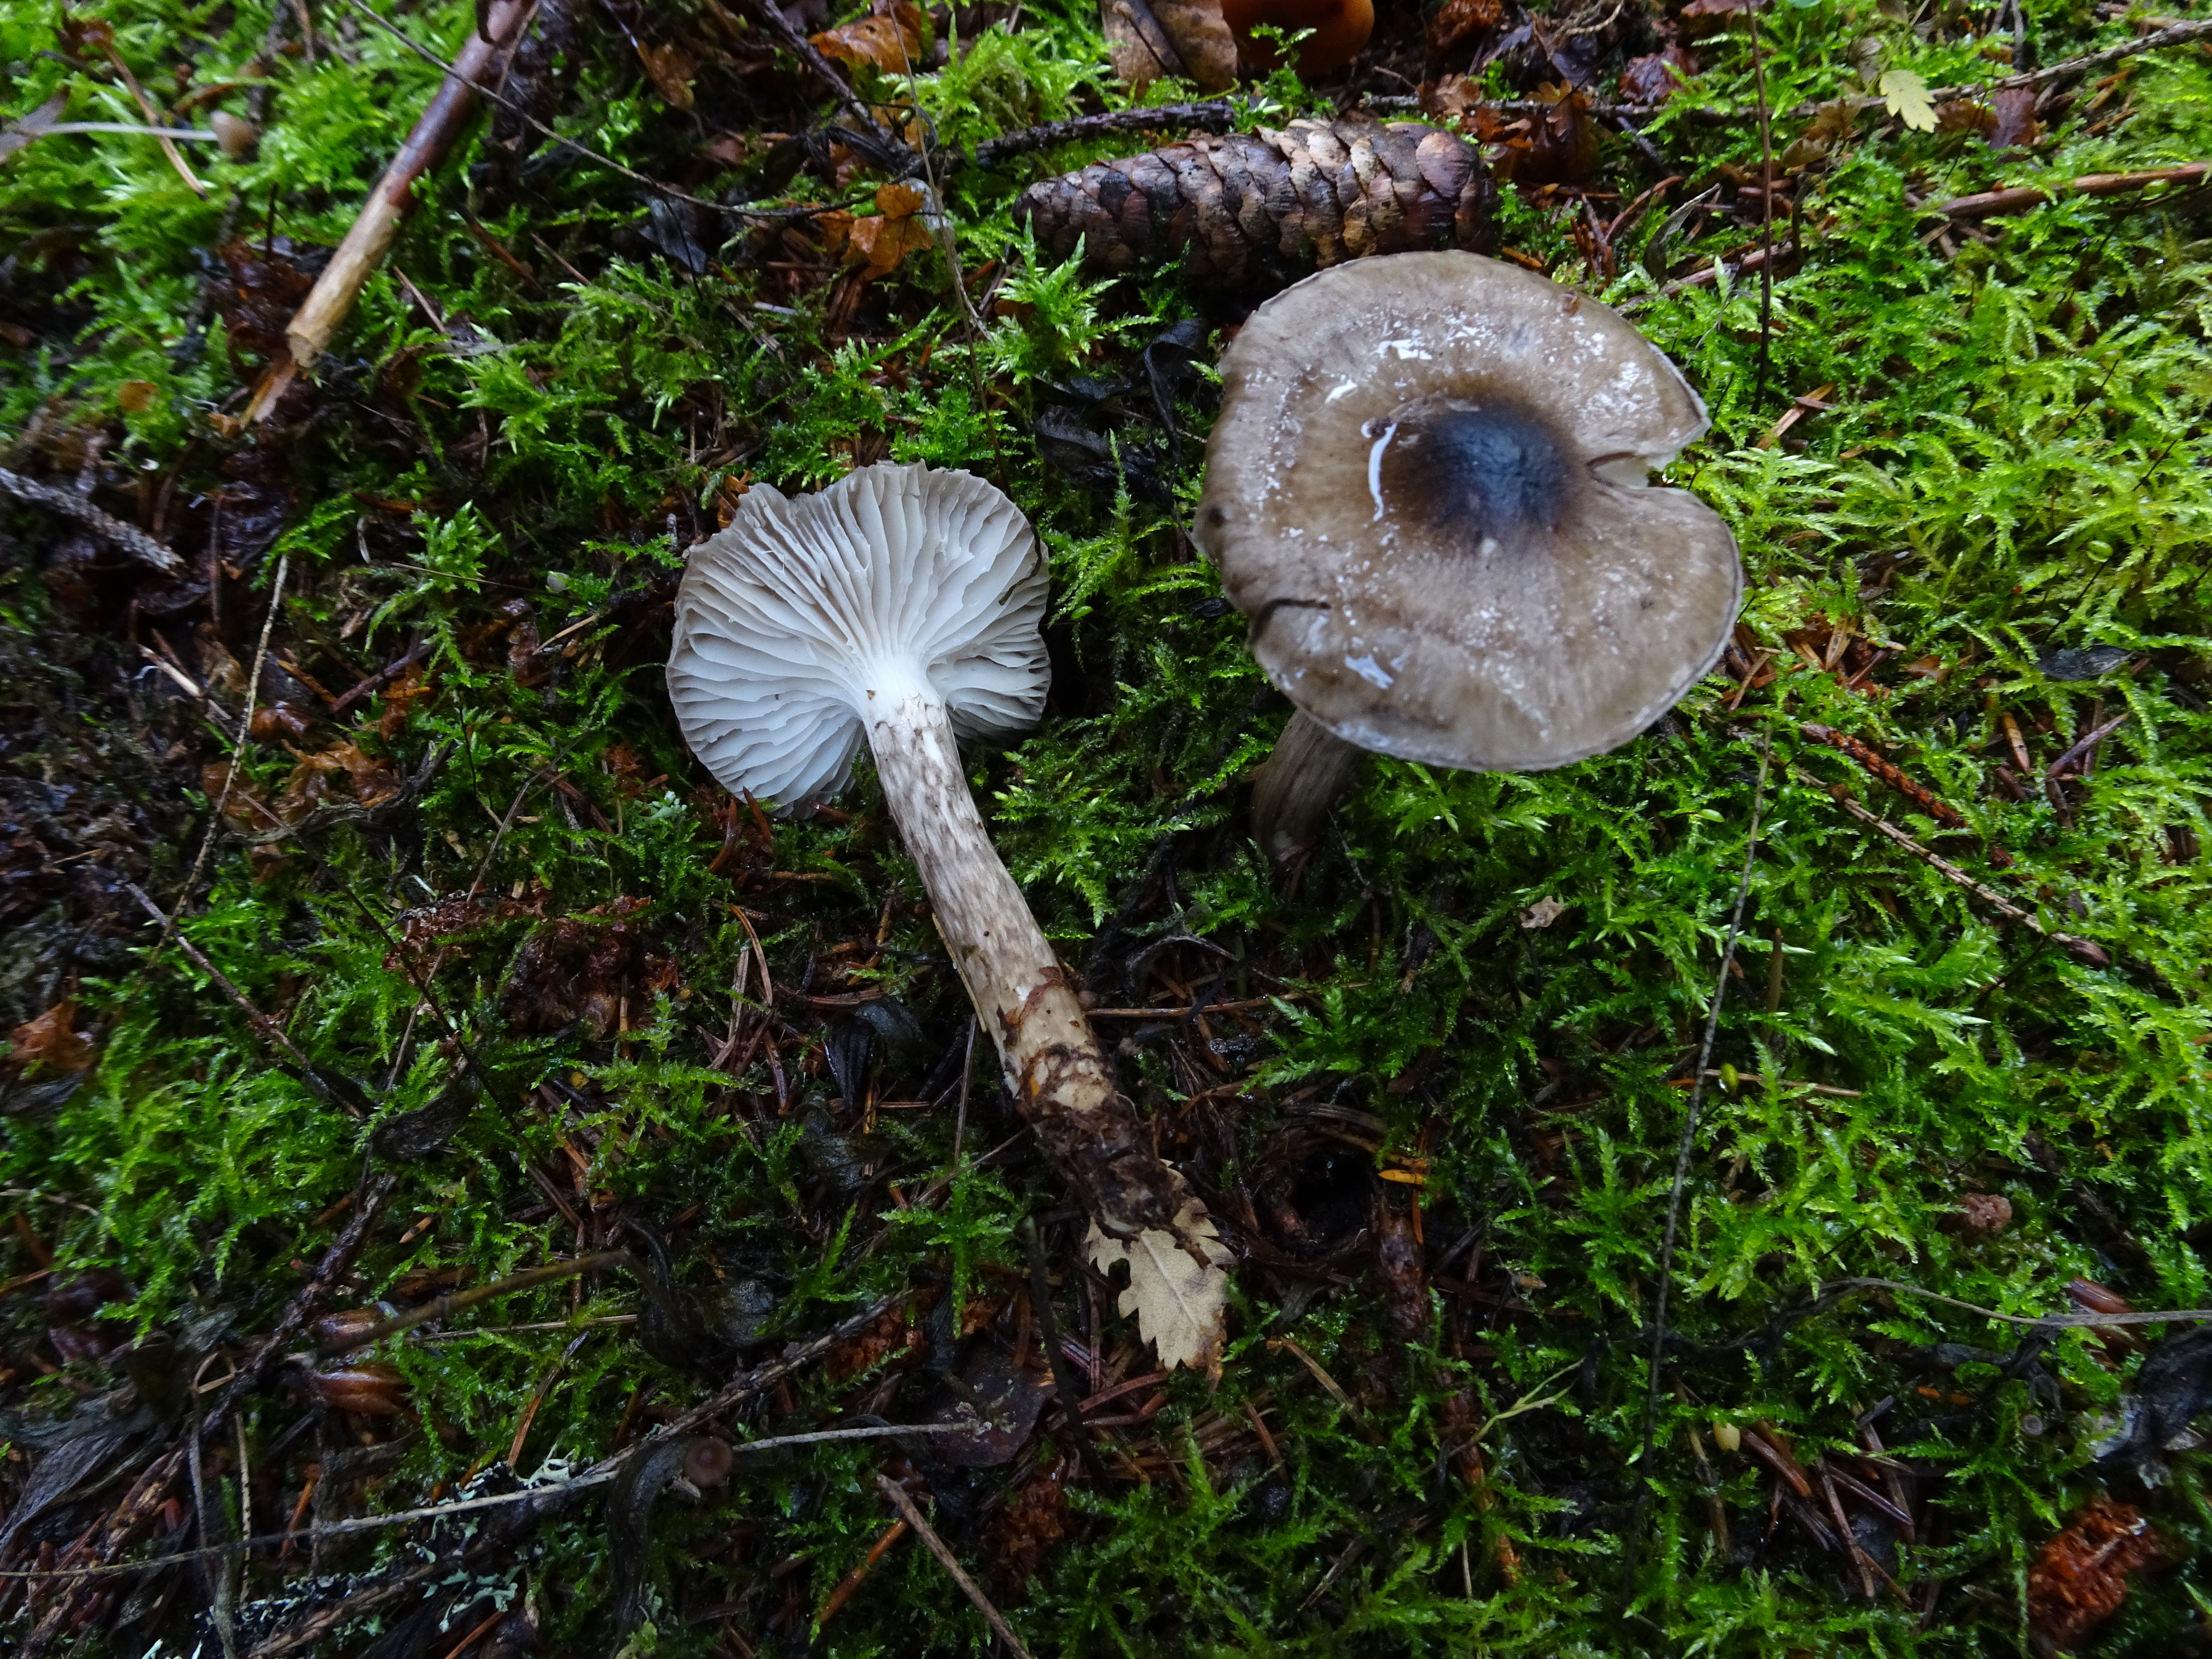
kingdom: Fungi
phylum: Basidiomycota
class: Agaricomycetes
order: Agaricales
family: Hygrophoraceae
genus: Hygrophorus
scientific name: Hygrophorus korhonenii
